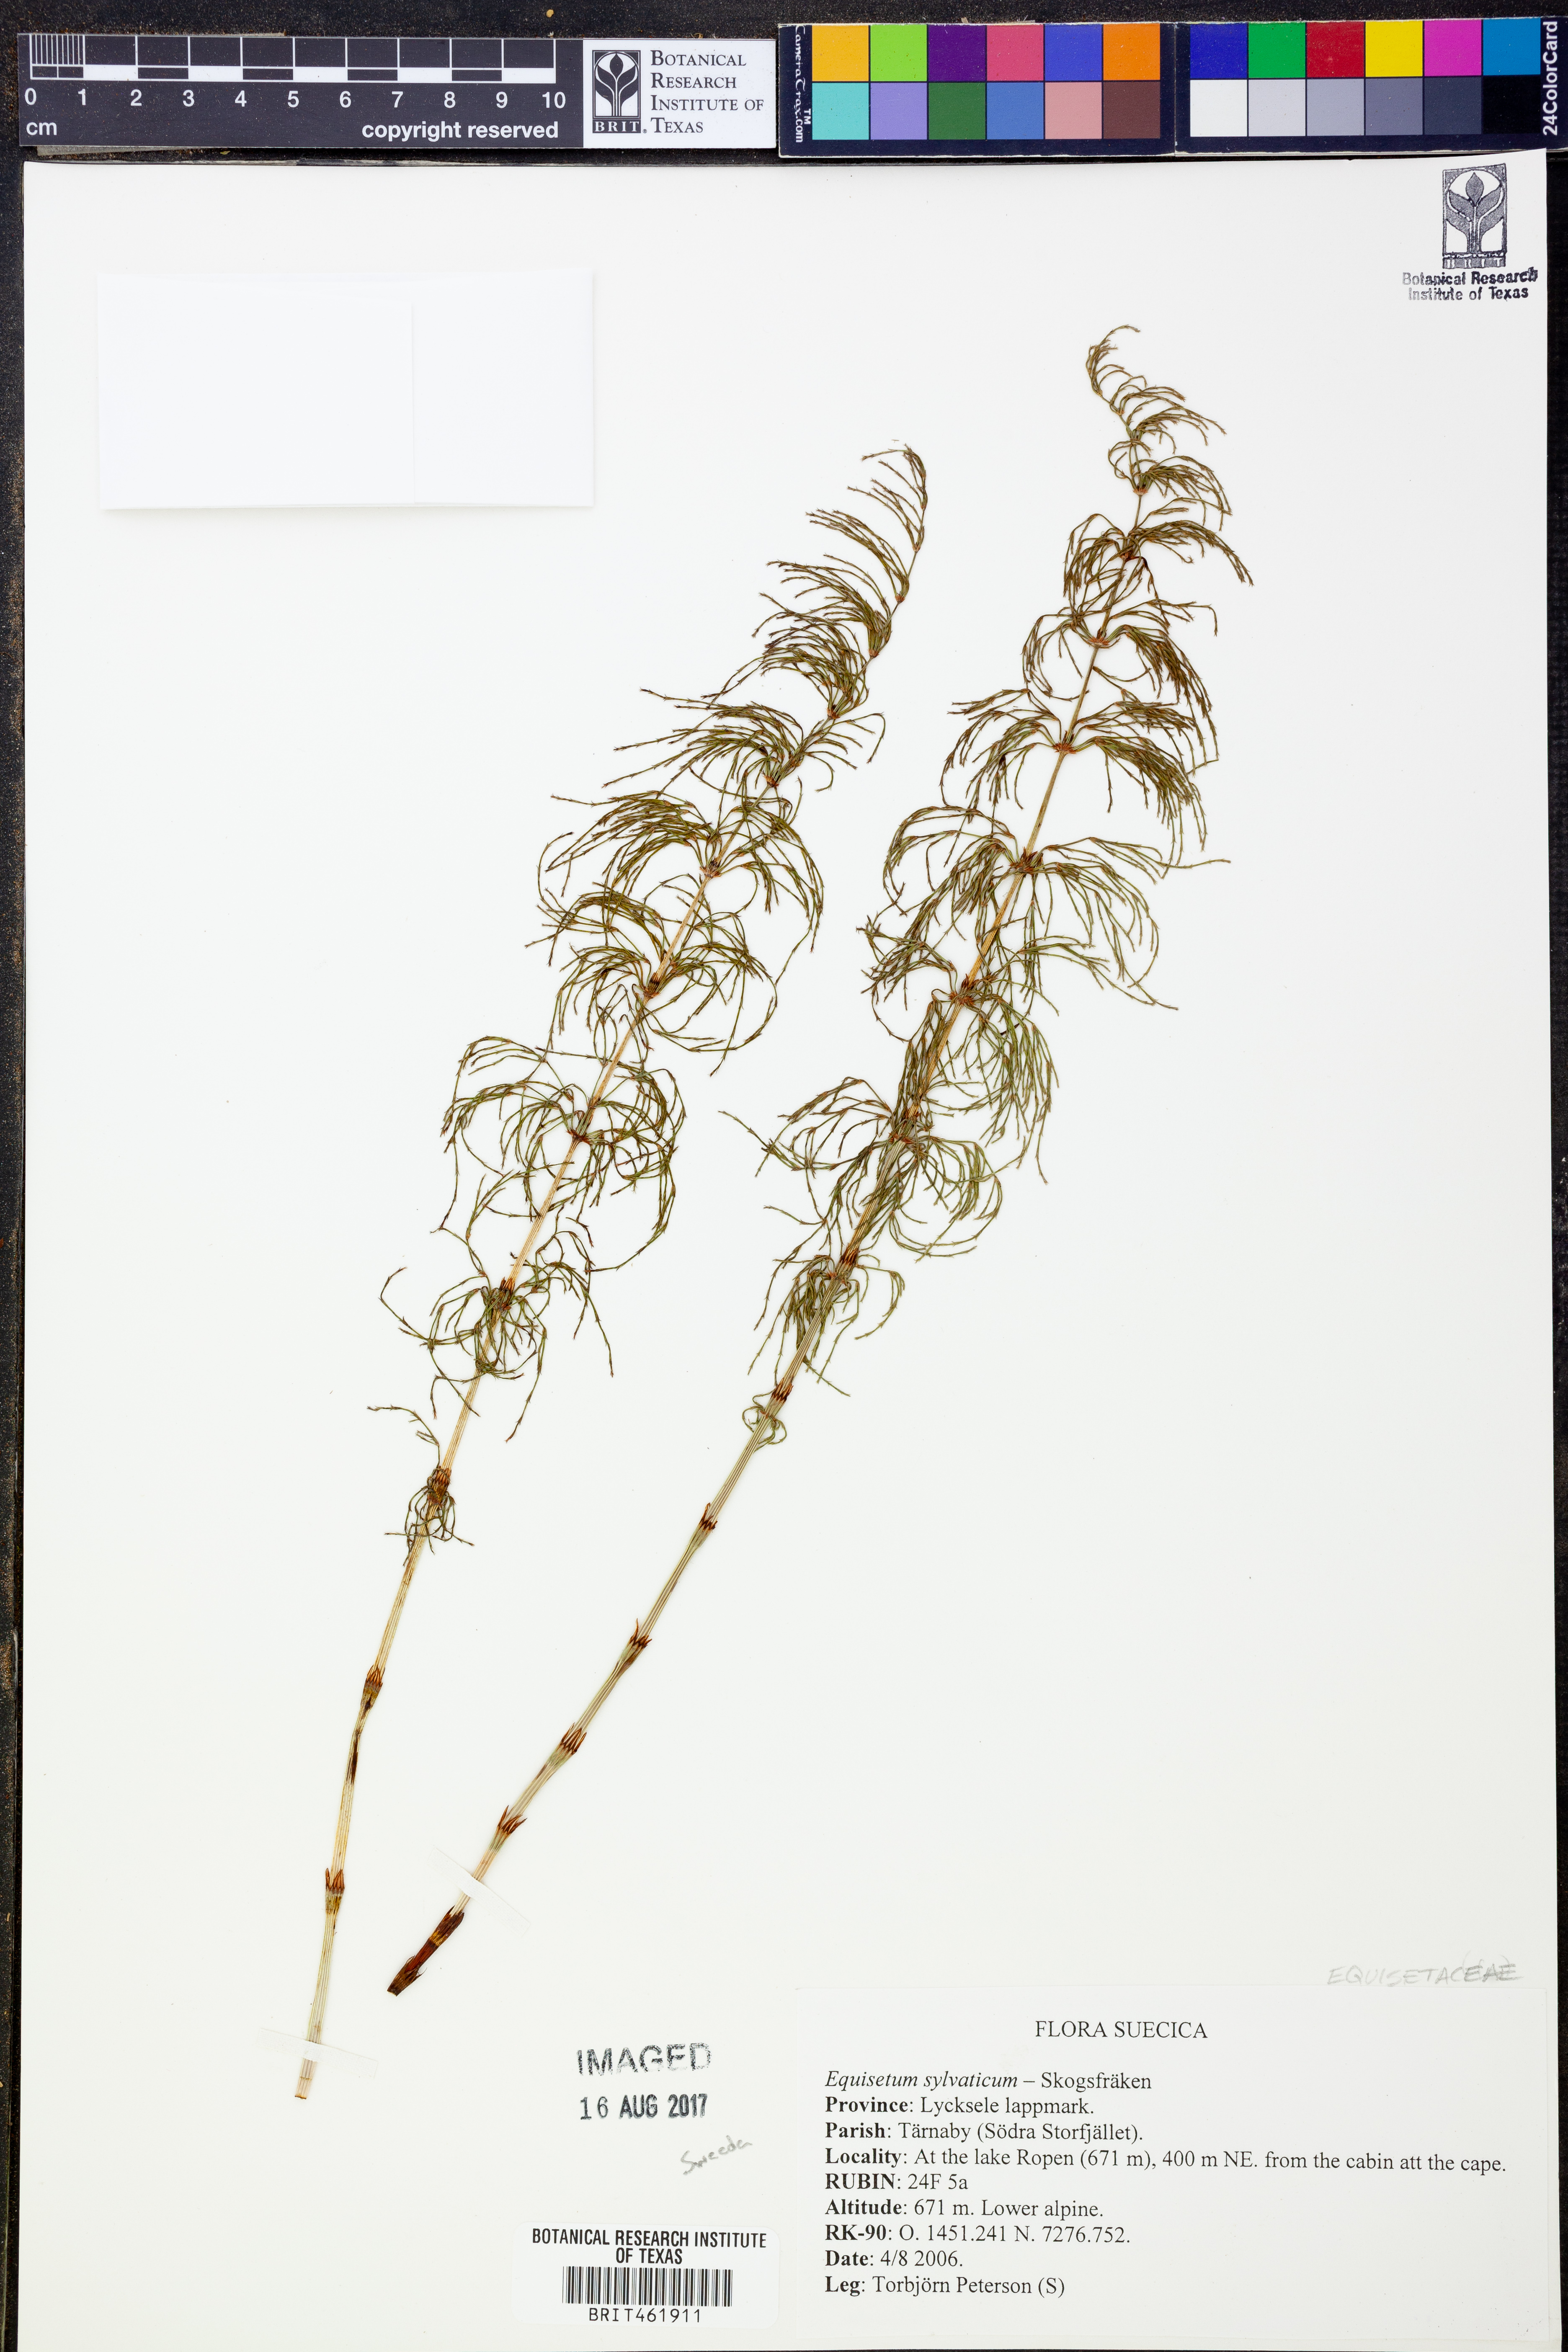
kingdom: Plantae
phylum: Tracheophyta
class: Polypodiopsida
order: Equisetales
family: Equisetaceae
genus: Equisetum
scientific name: Equisetum sylvaticum
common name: Wood horsetail
